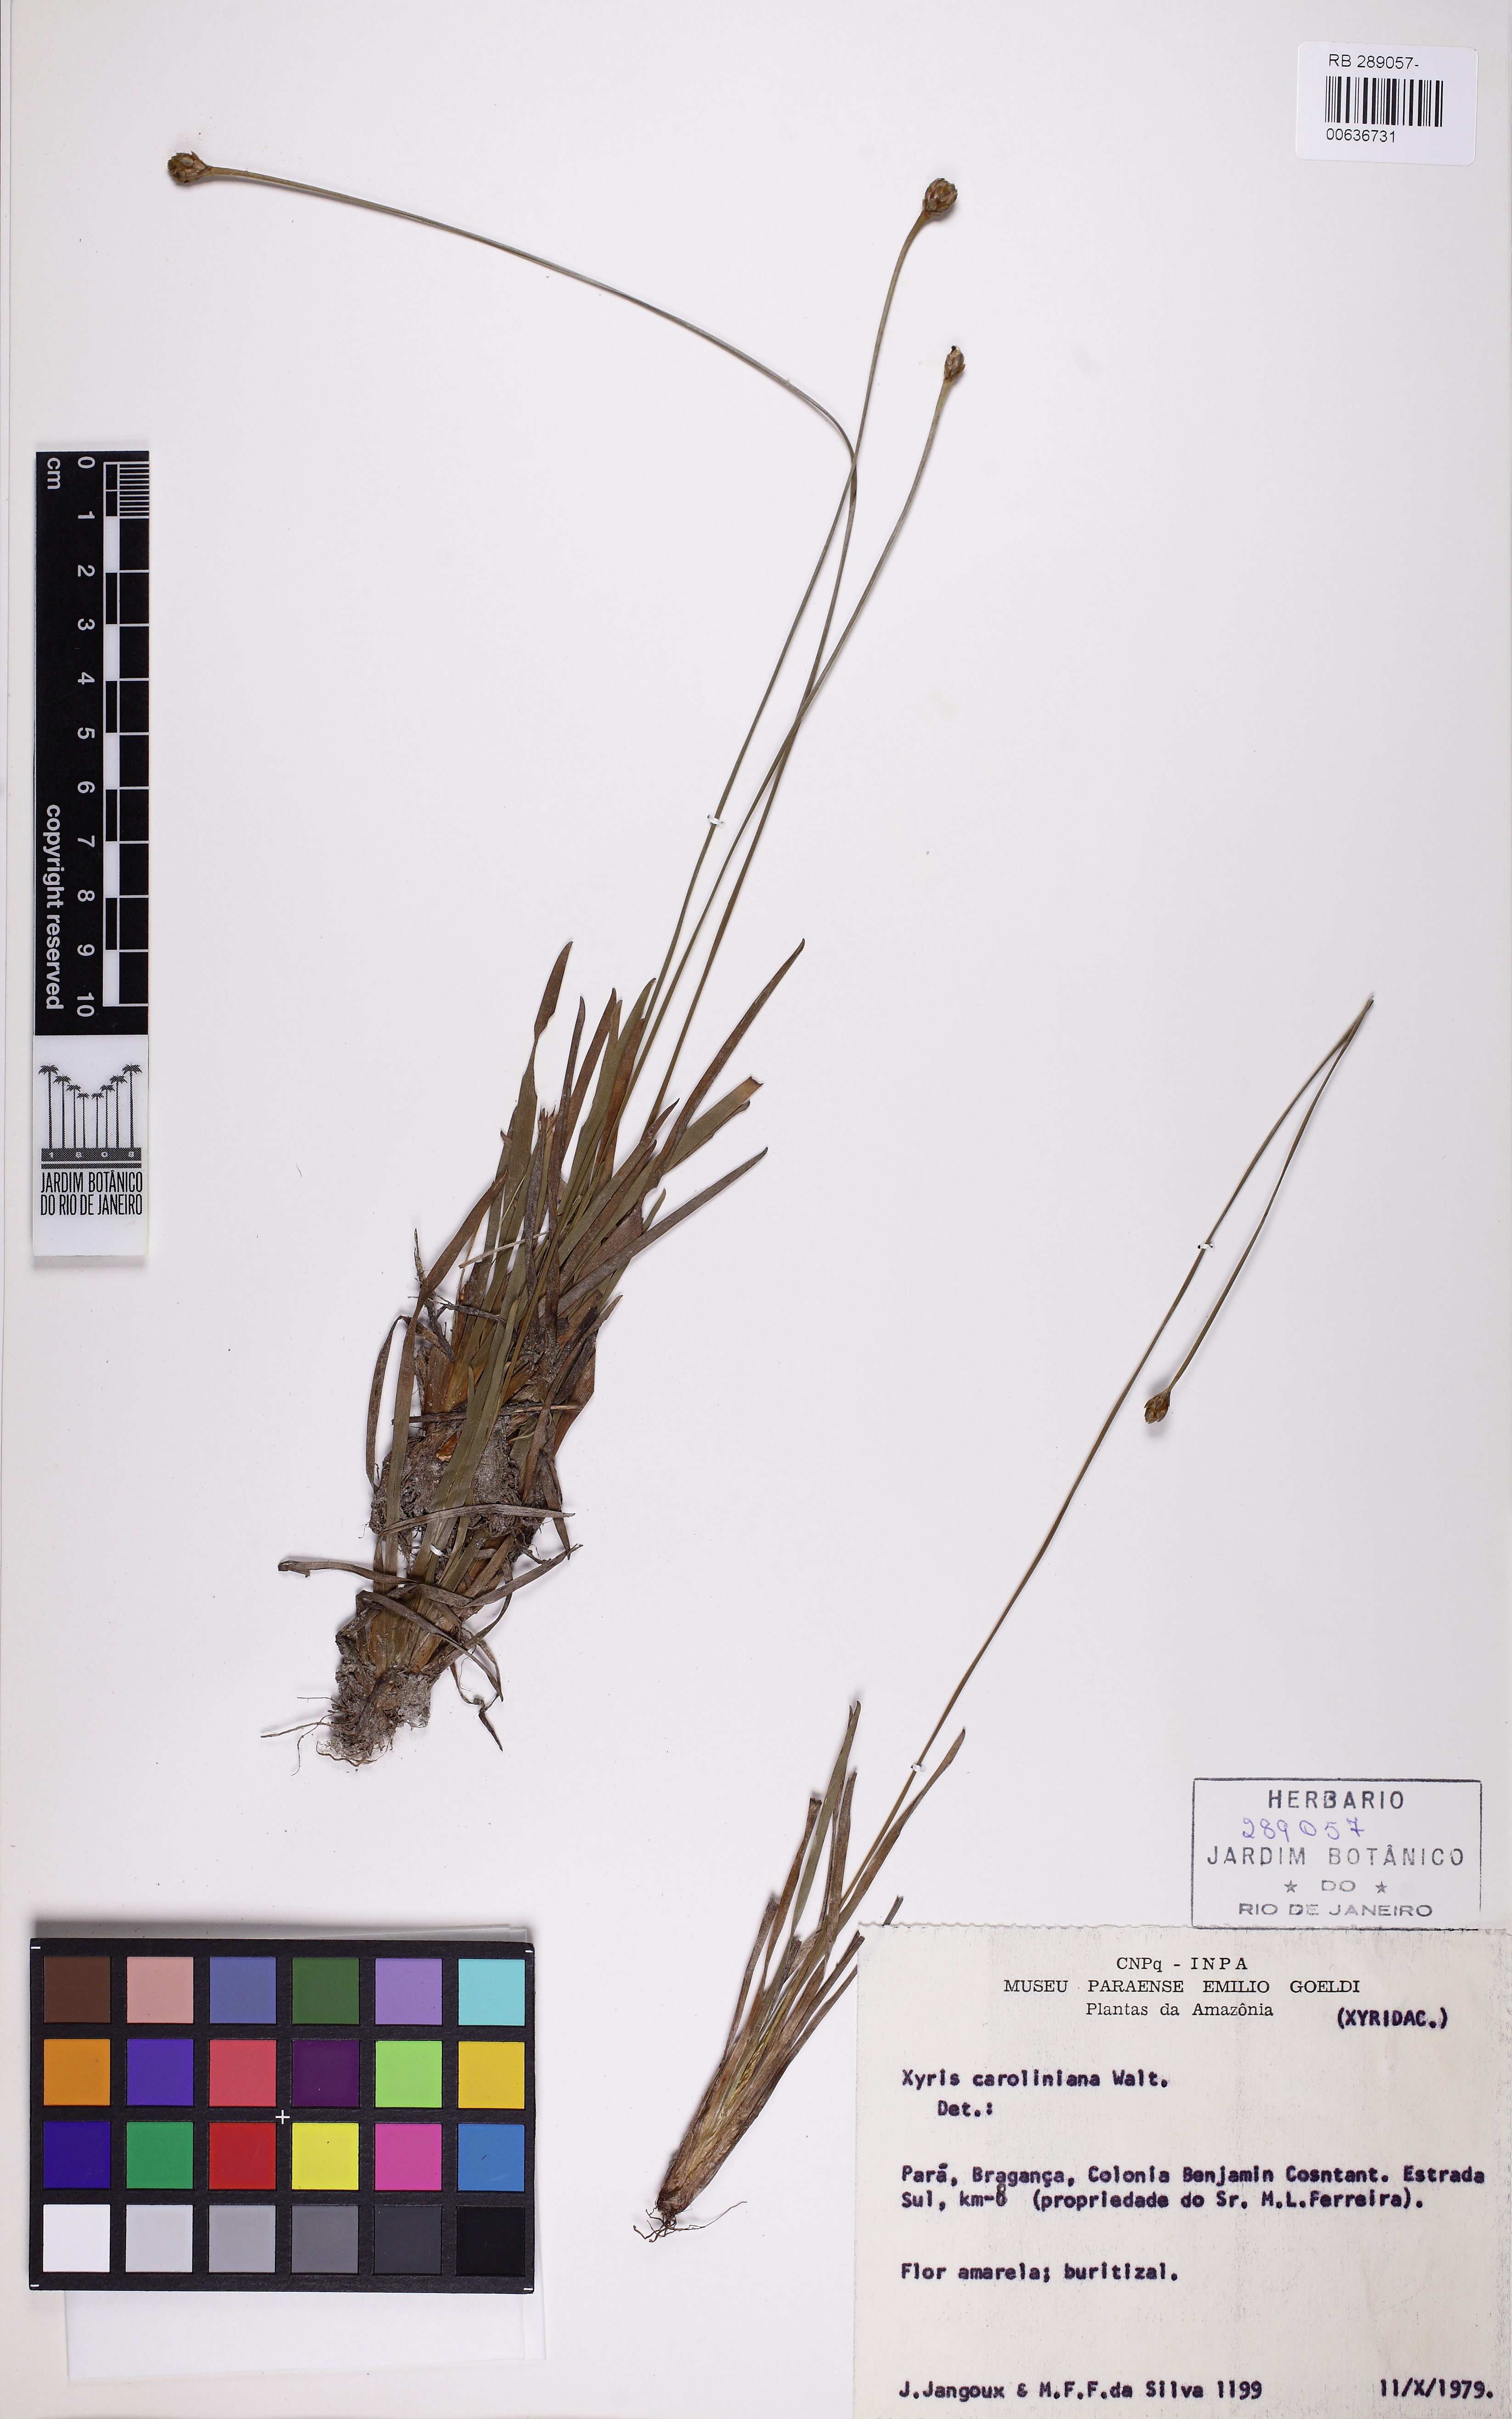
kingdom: Plantae
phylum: Tracheophyta
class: Liliopsida
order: Poales
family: Xyridaceae
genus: Xyris
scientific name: Xyris jupicai
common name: Richard's yelloweyed grass
